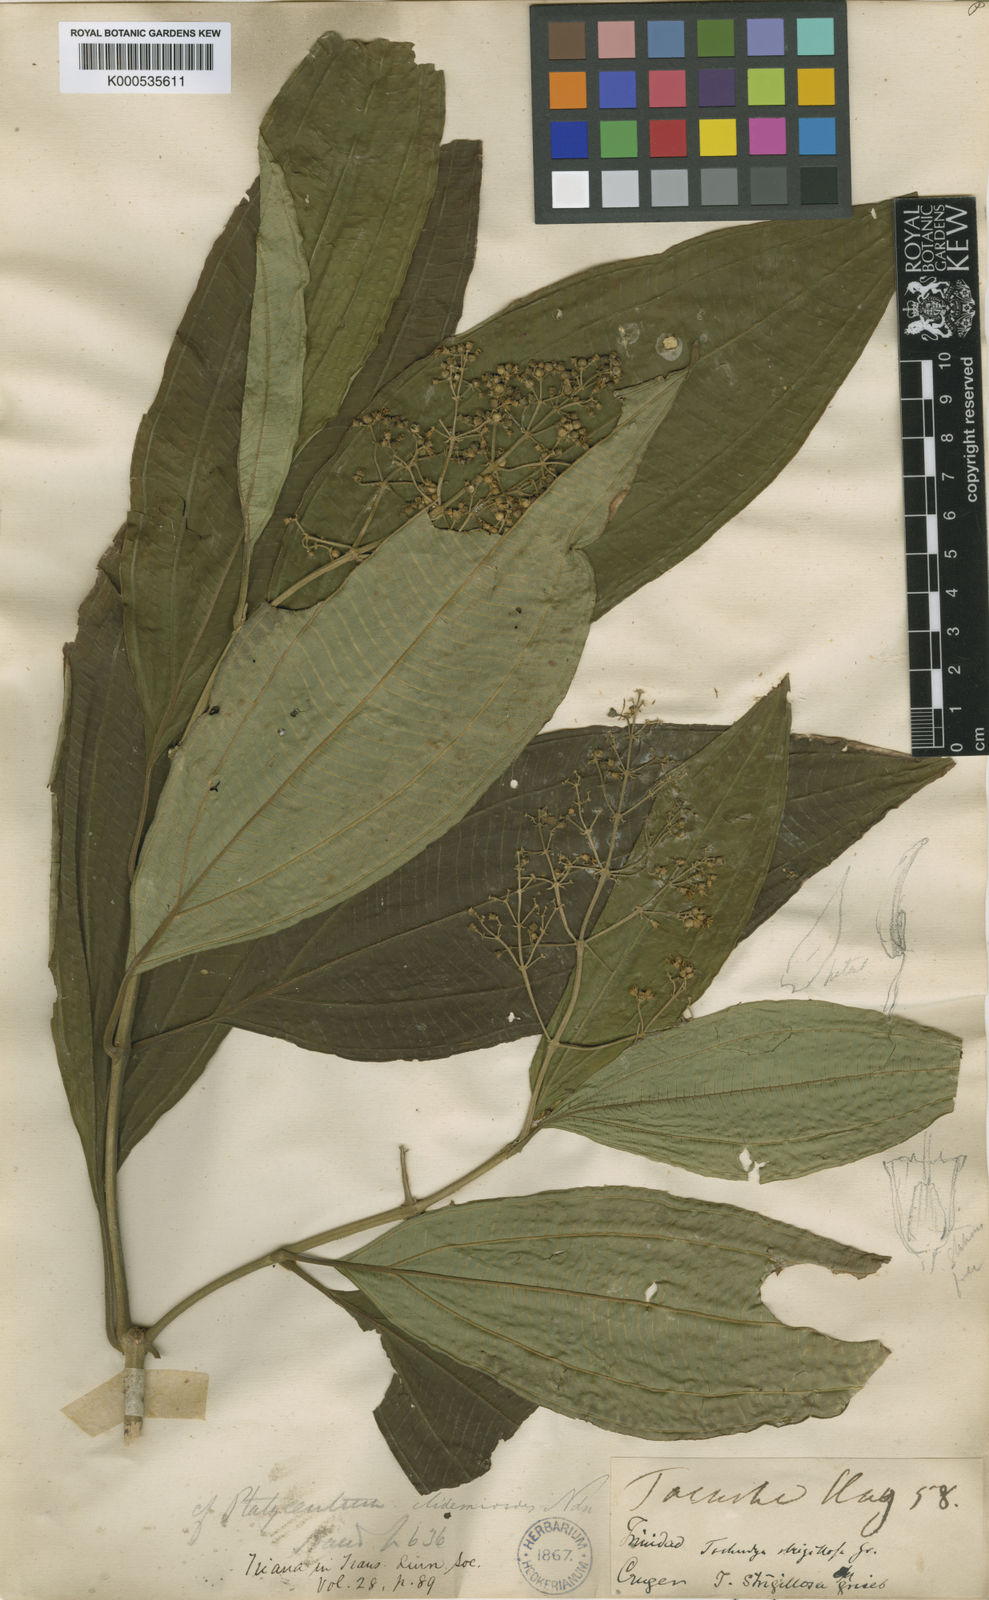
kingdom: Plantae
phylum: Tracheophyta
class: Magnoliopsida
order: Myrtales
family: Melastomataceae
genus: Miconia
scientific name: Miconia stenopetala
